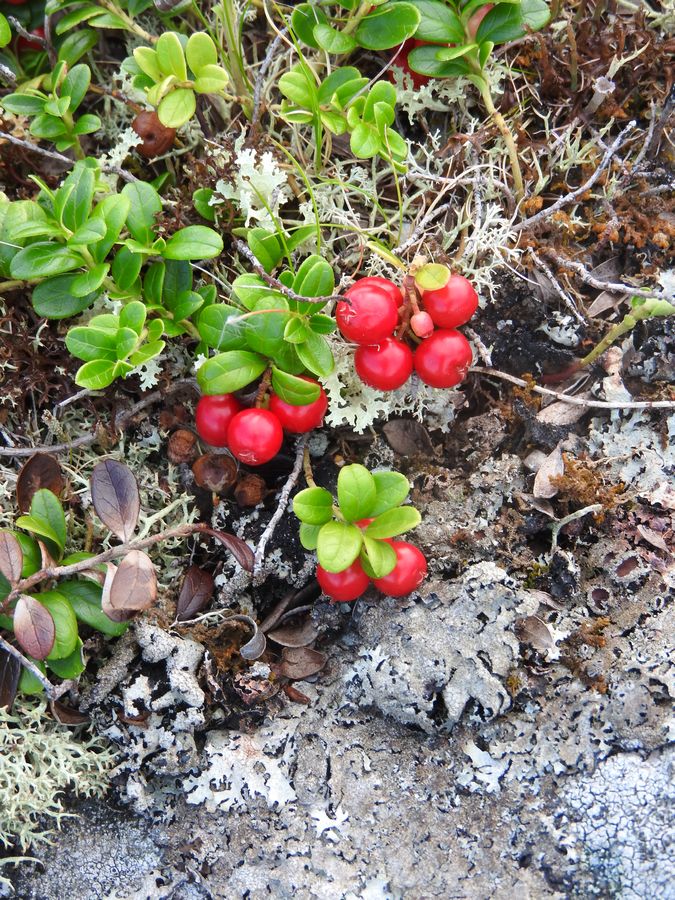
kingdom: Plantae
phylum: Tracheophyta
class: Magnoliopsida
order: Ericales
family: Ericaceae
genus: Vaccinium
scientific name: Vaccinium vitis-idaea
